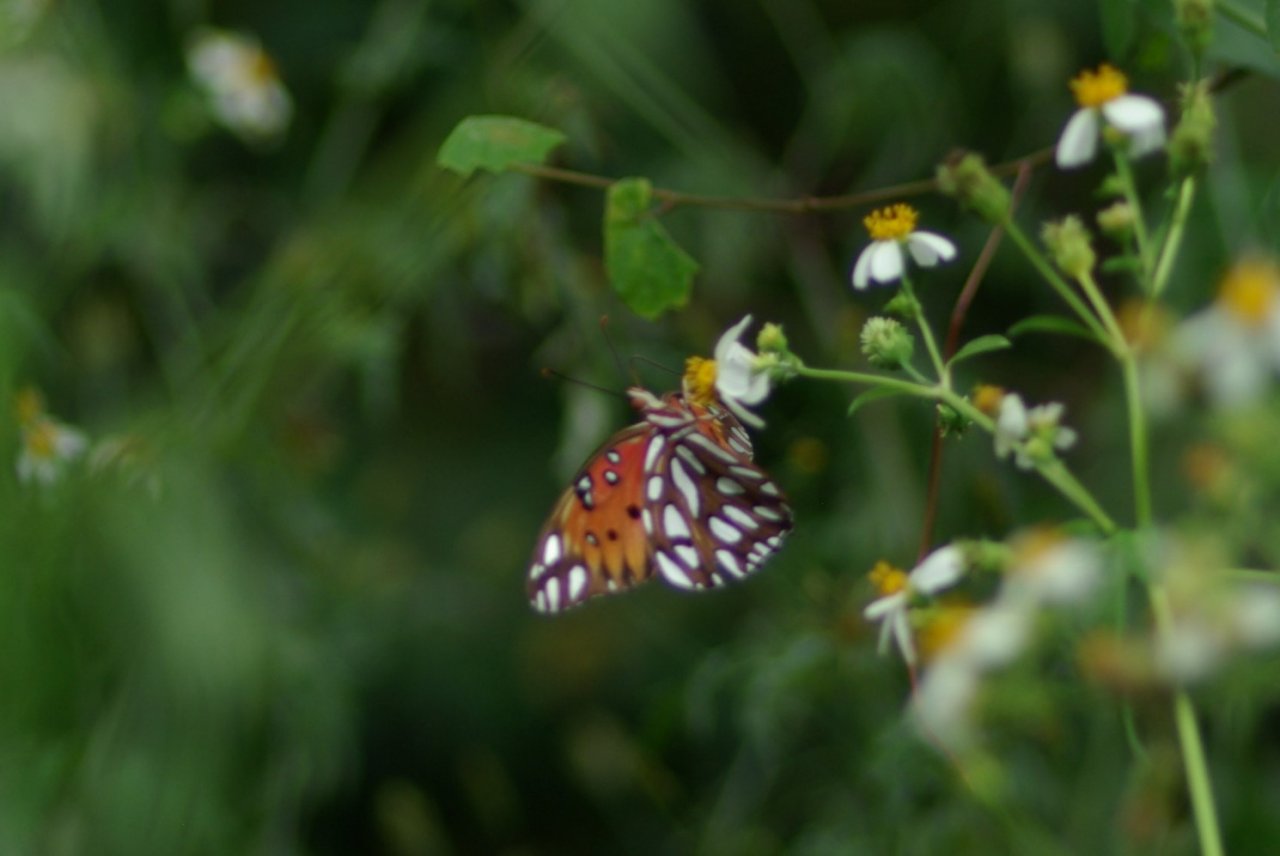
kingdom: Animalia
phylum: Arthropoda
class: Insecta
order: Lepidoptera
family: Nymphalidae
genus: Dione
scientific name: Dione vanillae
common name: Gulf Fritillary
